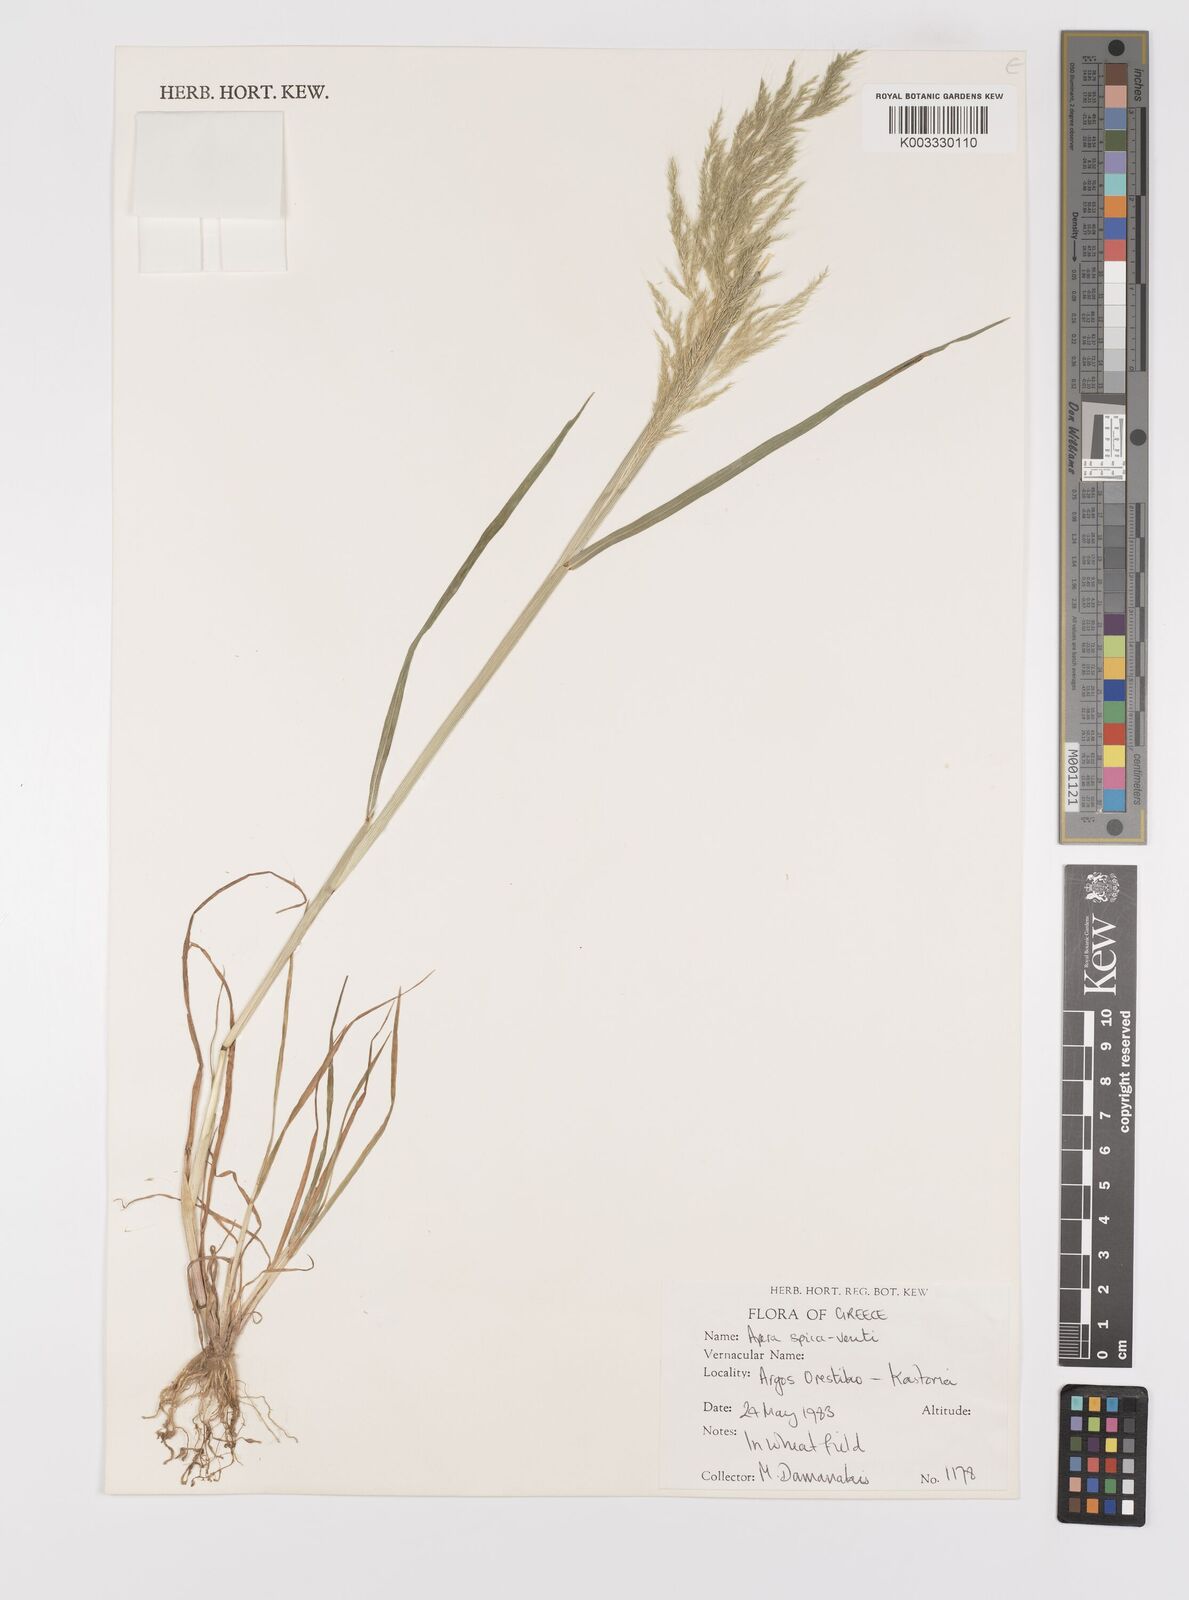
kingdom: Plantae
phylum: Tracheophyta
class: Liliopsida
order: Poales
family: Poaceae
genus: Apera
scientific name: Apera spica-venti
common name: Loose silky-bent
